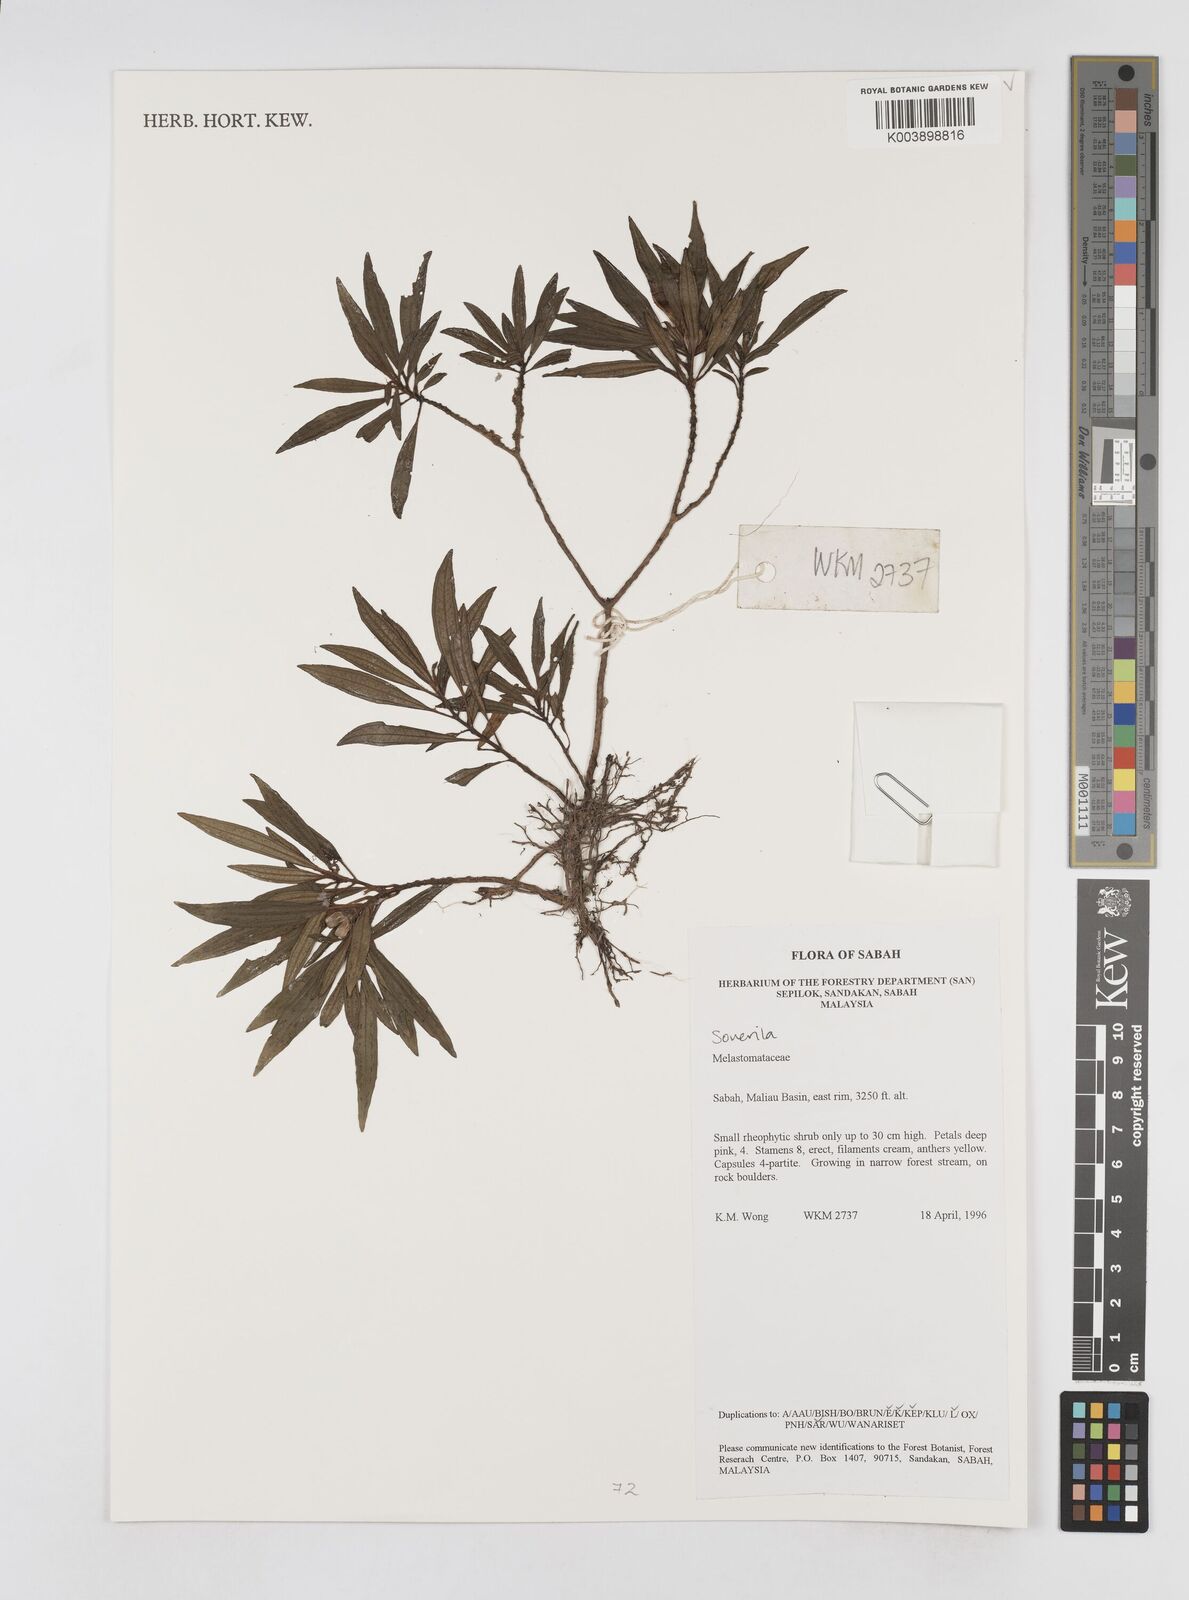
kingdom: Plantae
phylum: Tracheophyta
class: Magnoliopsida
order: Myrtales
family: Melastomataceae
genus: Sonerila
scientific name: Sonerila
